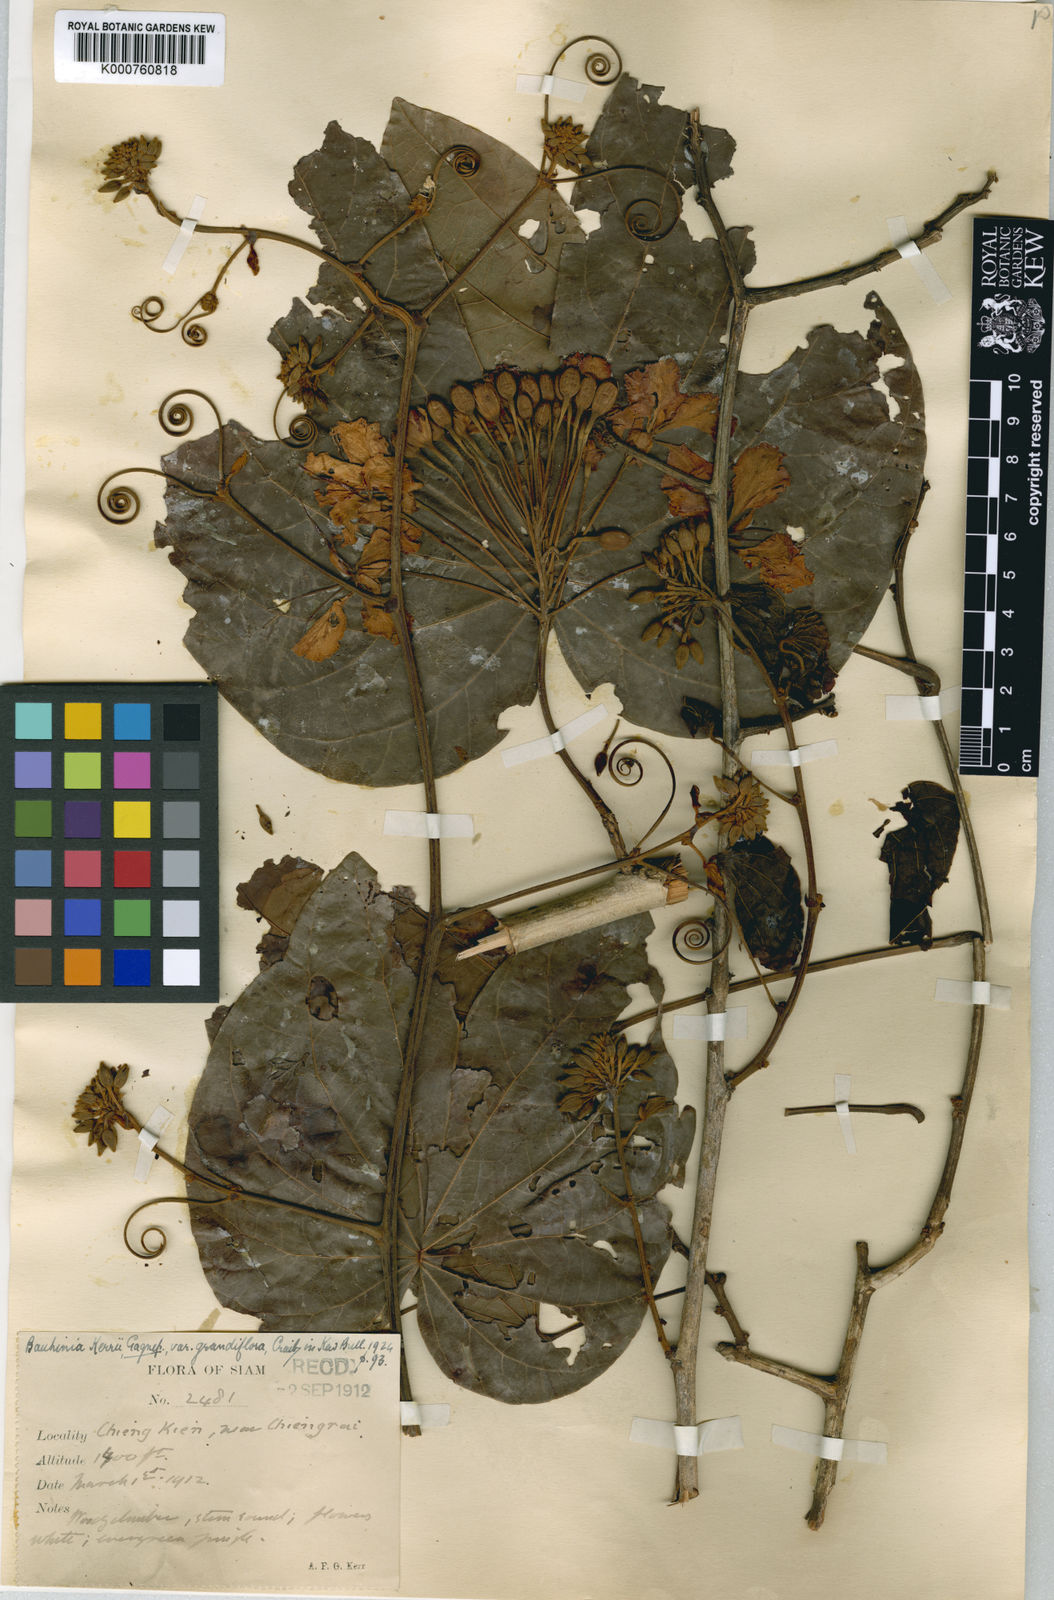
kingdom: Plantae
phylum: Tracheophyta
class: Magnoliopsida
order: Fabales
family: Fabaceae
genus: Phanera
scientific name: Phanera ornata
